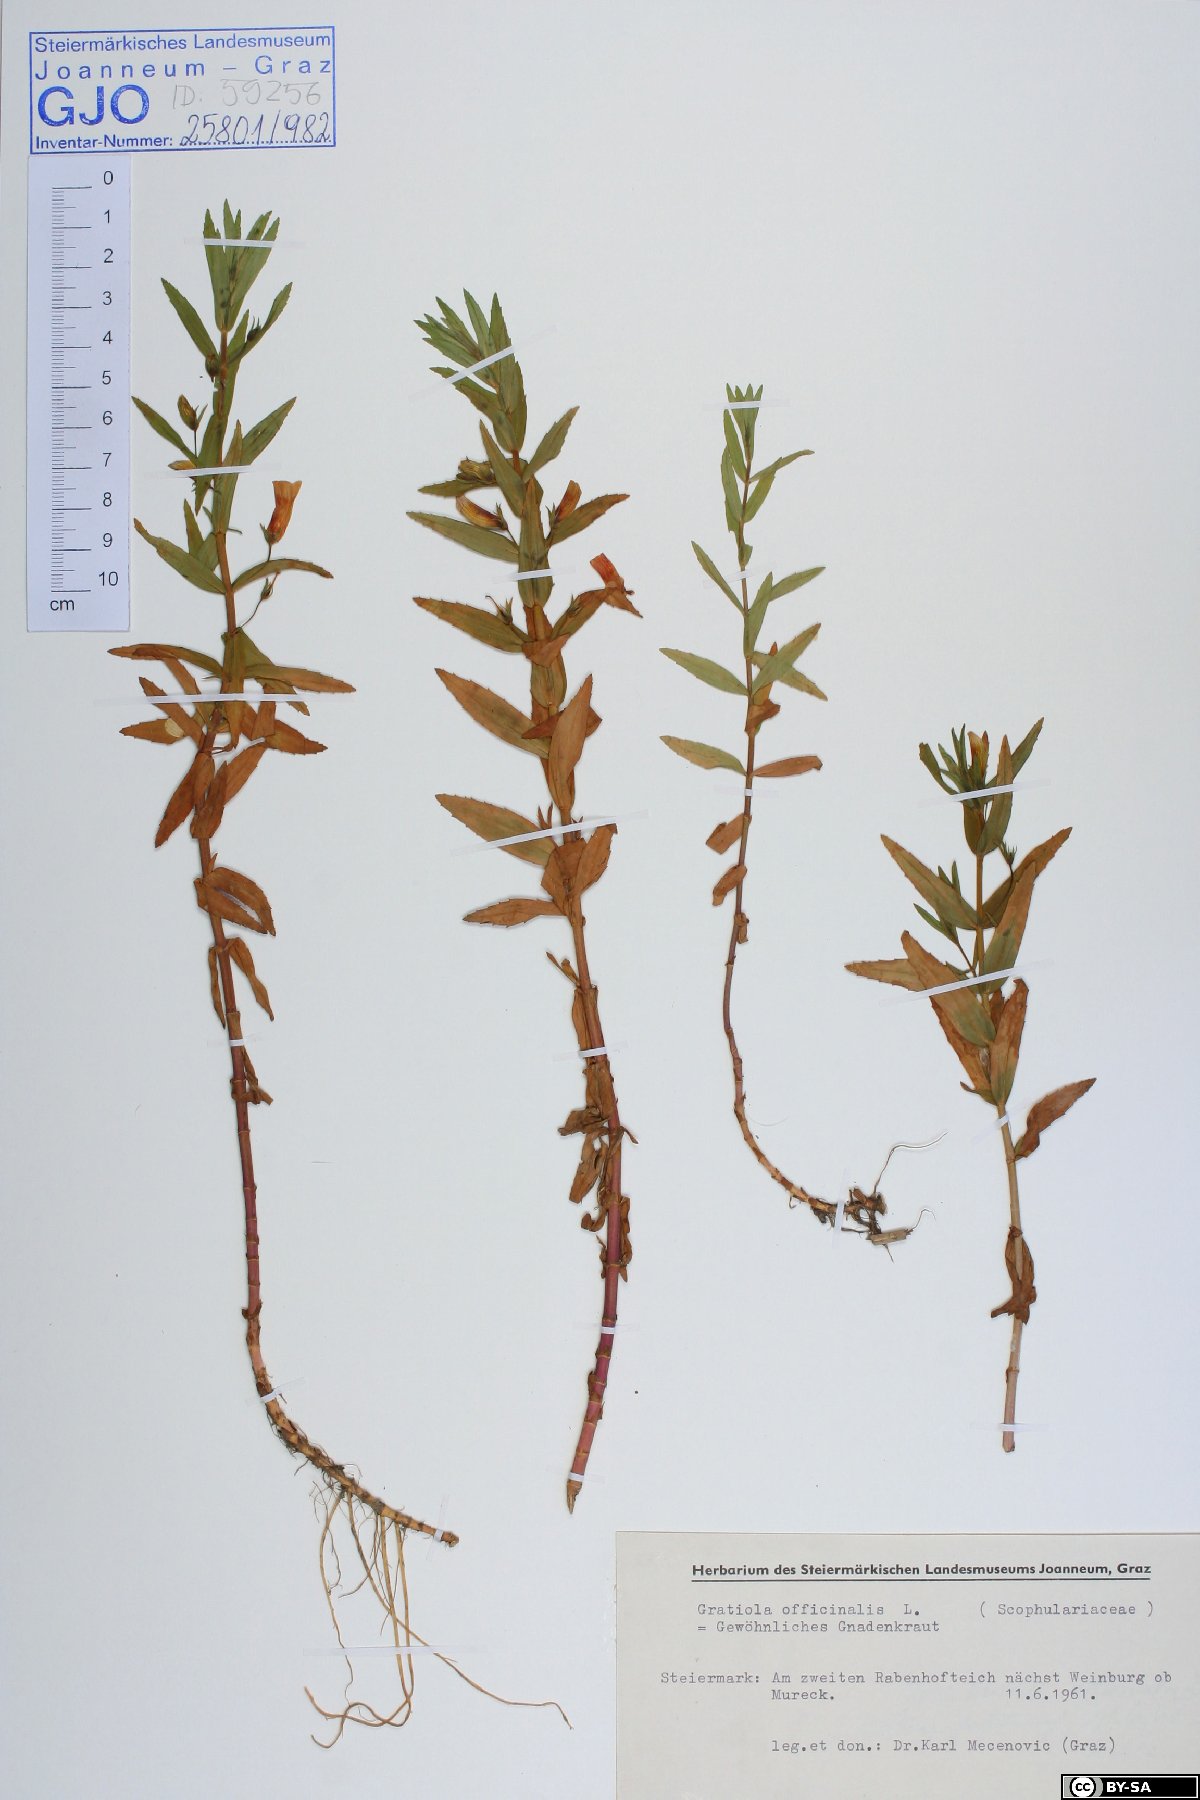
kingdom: Plantae
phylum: Tracheophyta
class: Magnoliopsida
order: Lamiales
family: Plantaginaceae
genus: Gratiola
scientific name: Gratiola officinalis
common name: Gratiola
